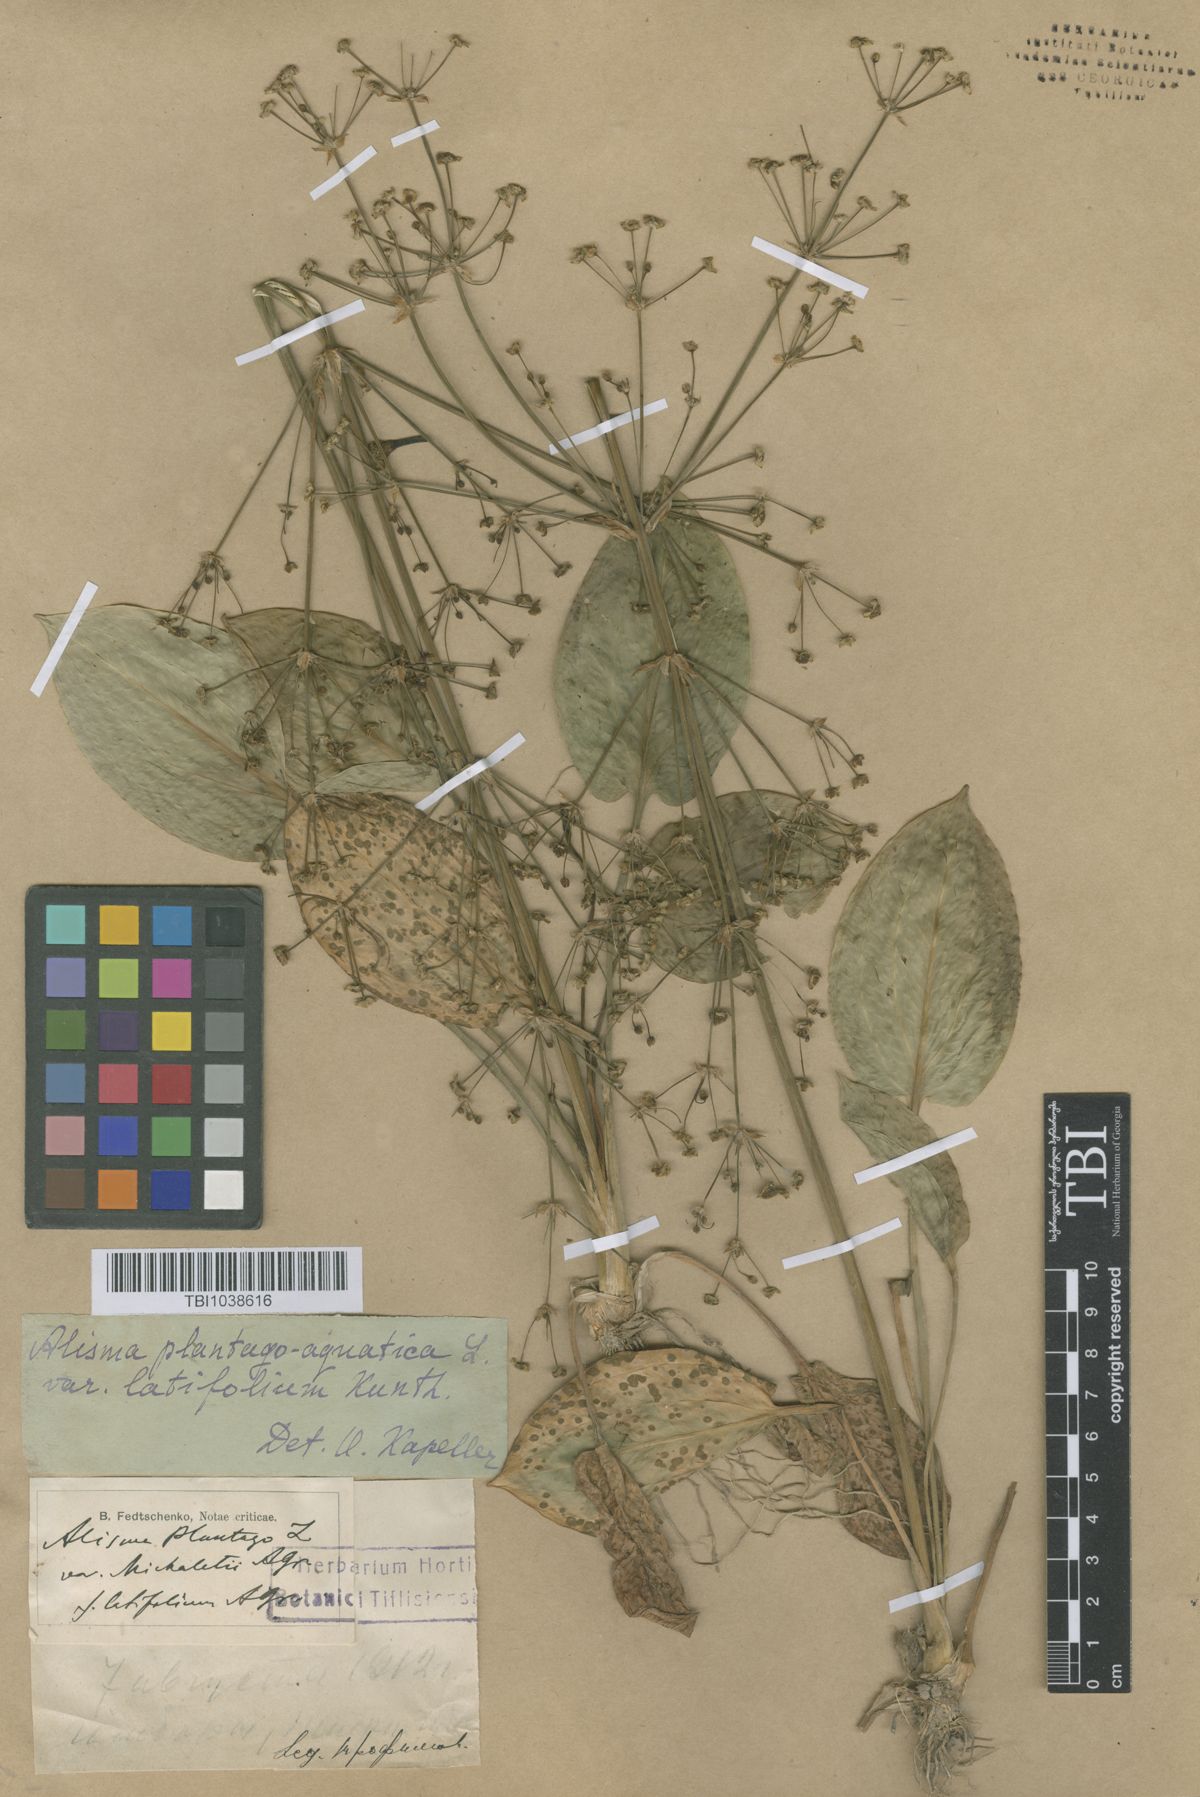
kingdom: Plantae
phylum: Tracheophyta
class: Liliopsida
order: Alismatales
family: Alismataceae
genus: Alisma
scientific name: Alisma plantago-aquatica
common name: Water-plantain
